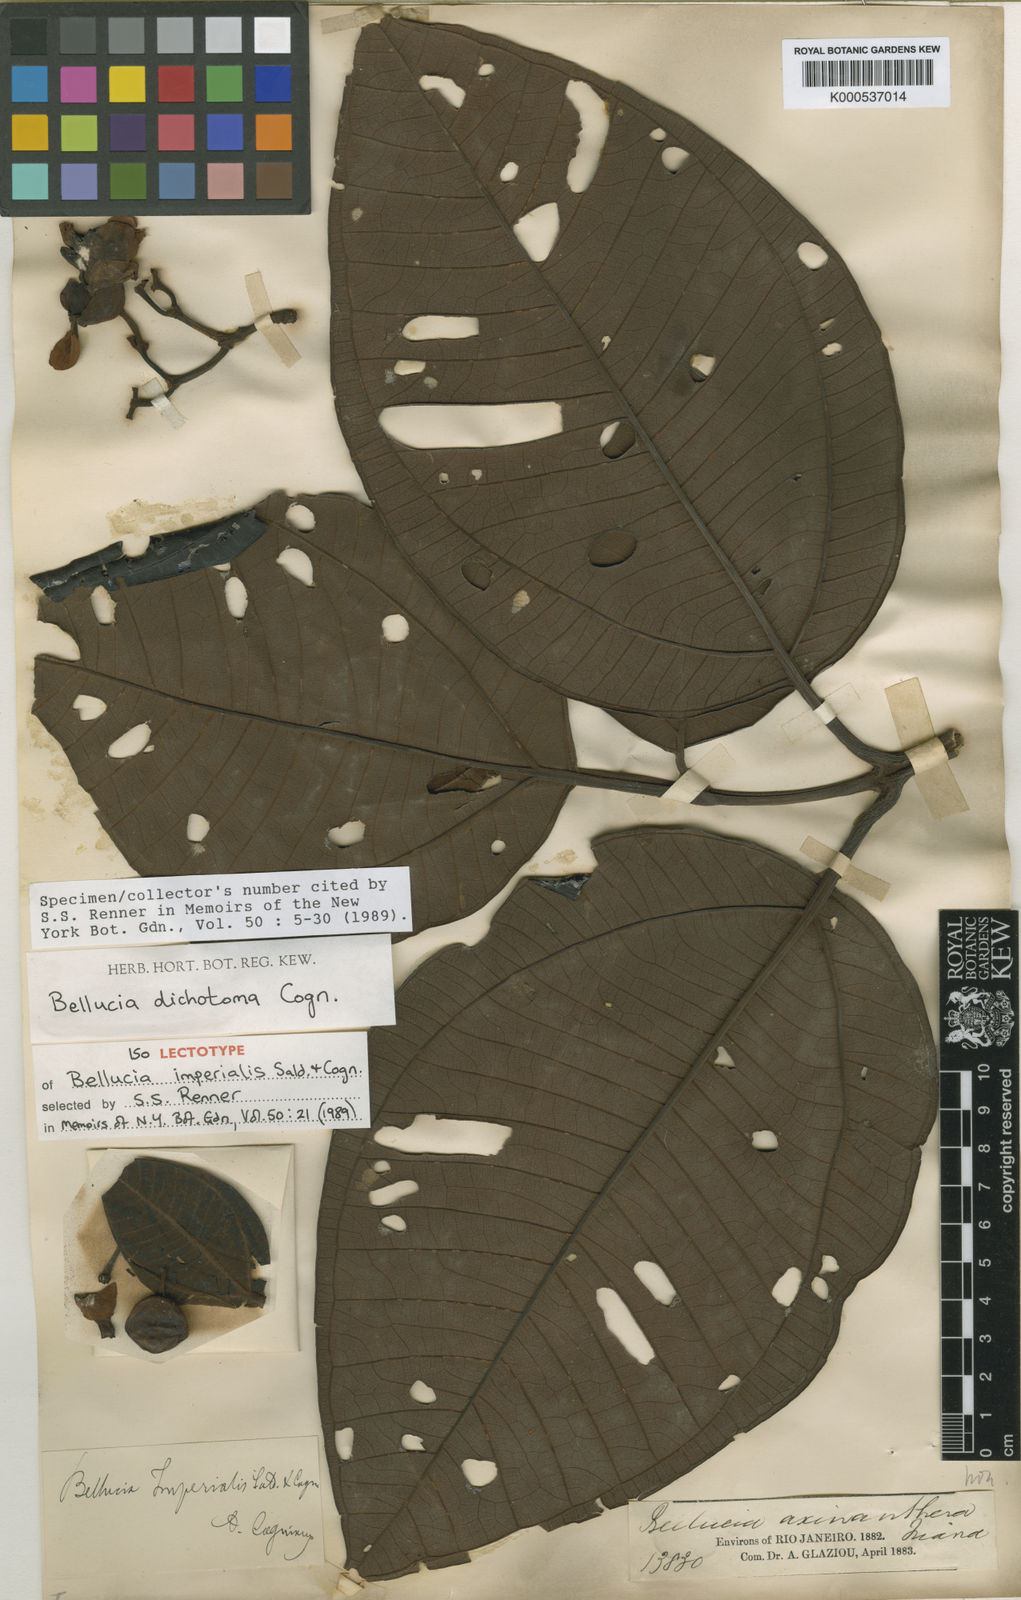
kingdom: Plantae
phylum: Tracheophyta
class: Magnoliopsida
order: Myrtales
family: Melastomataceae
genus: Bellucia
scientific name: Bellucia imperialis
